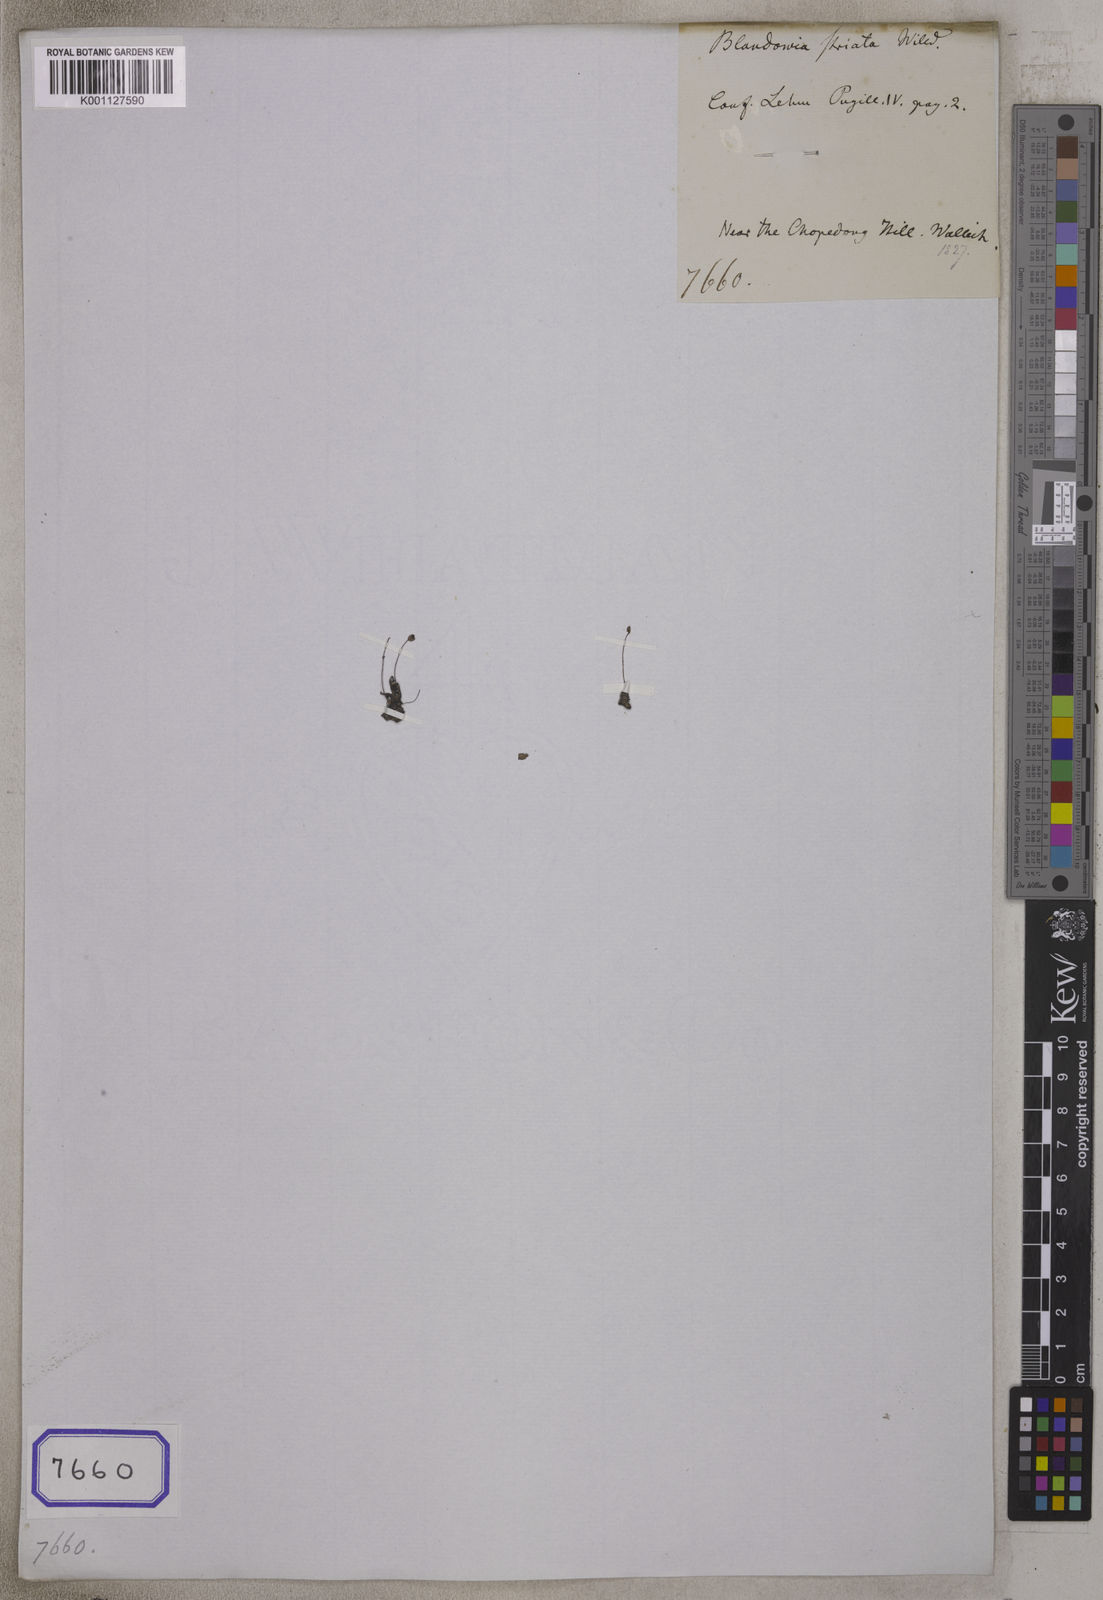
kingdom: Plantae
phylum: Tracheophyta
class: Magnoliopsida
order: Malpighiales
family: Podostemaceae
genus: Apinagia
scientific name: Apinagia willdenowii
